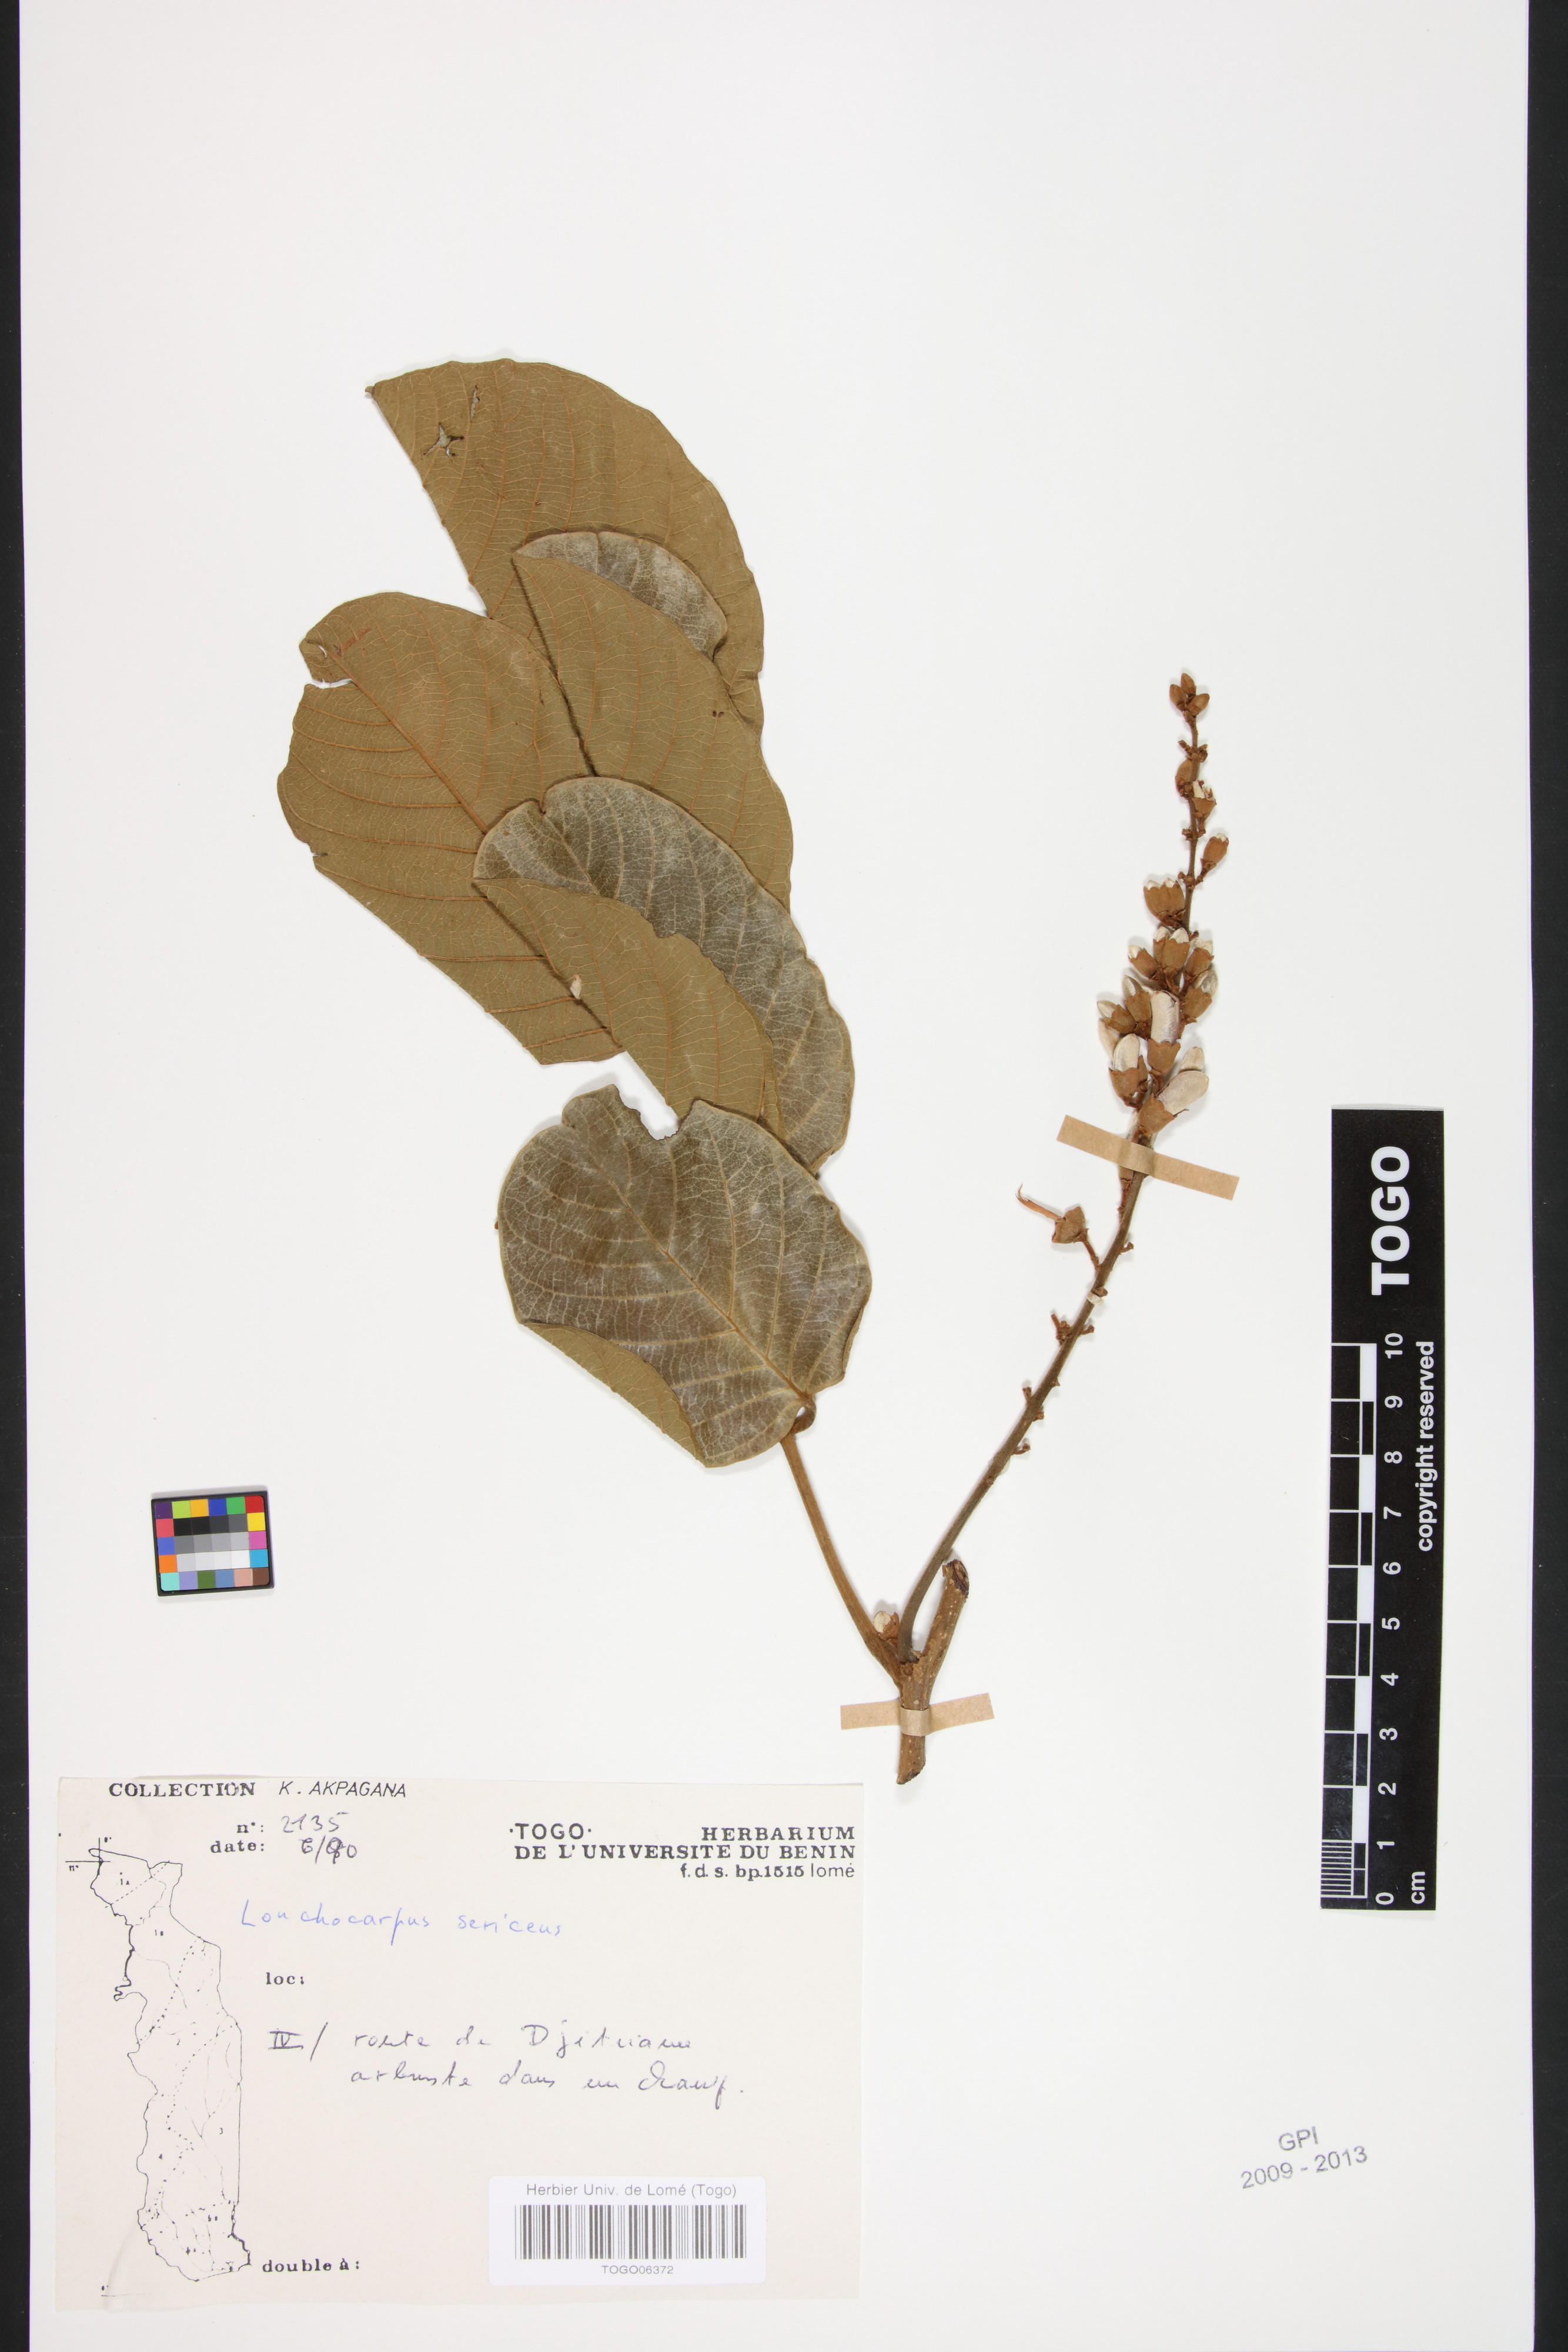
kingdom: Plantae
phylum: Tracheophyta
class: Magnoliopsida
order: Fabales
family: Fabaceae
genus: Lonchocarpus
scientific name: Lonchocarpus sericeus
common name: Savonette
